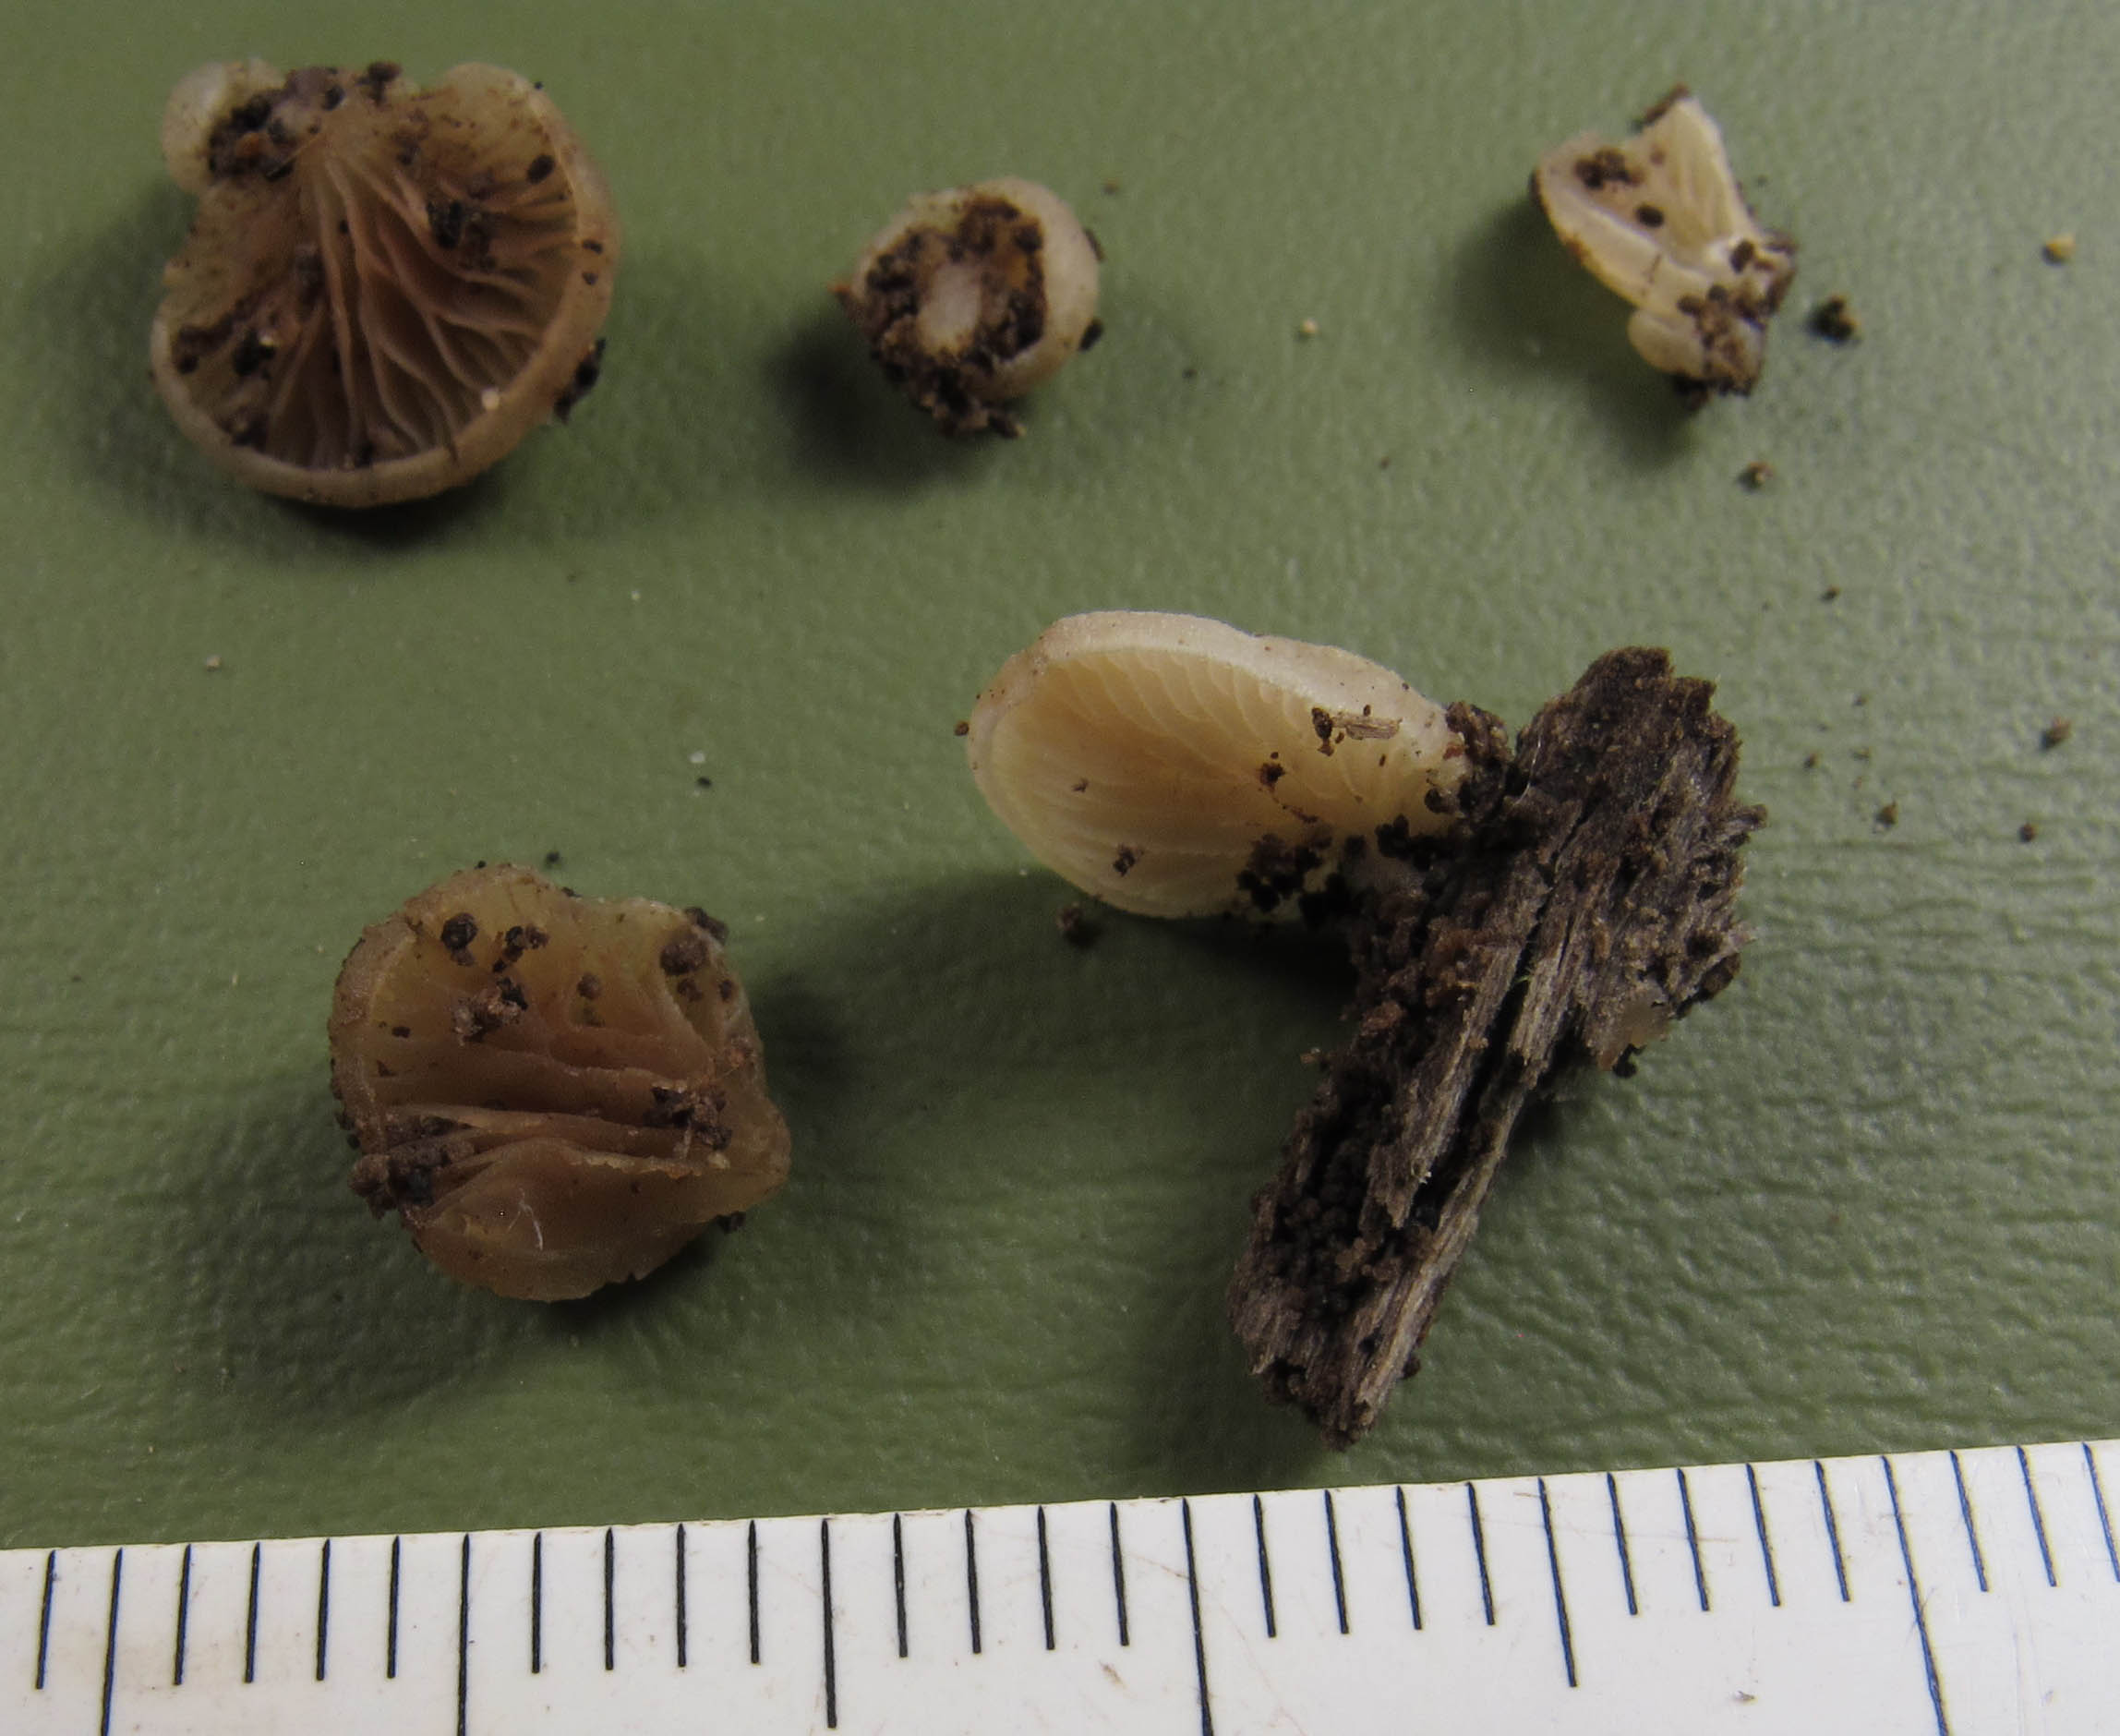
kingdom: Fungi
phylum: Basidiomycota
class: Agaricomycetes
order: Agaricales
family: Crepidotaceae
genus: Crepidotus
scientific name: Crepidotus applanatus
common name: tvefarvet muslingesvamp
